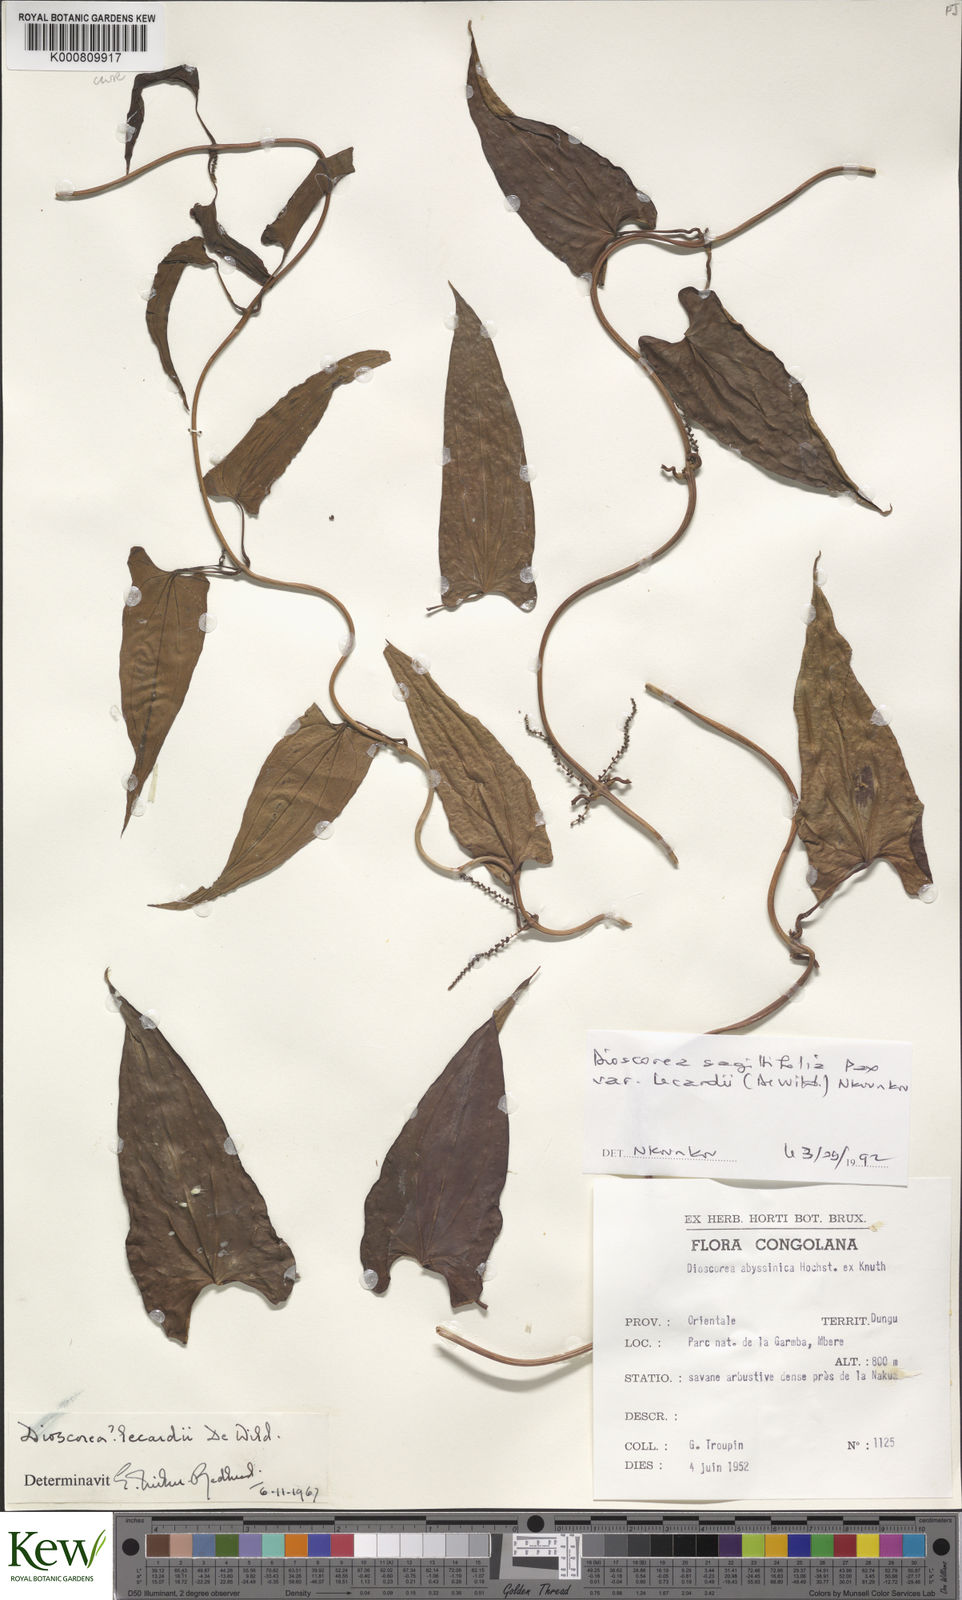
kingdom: Plantae
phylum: Tracheophyta
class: Liliopsida
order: Dioscoreales
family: Dioscoreaceae
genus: Dioscorea
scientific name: Dioscorea sagittifolia
